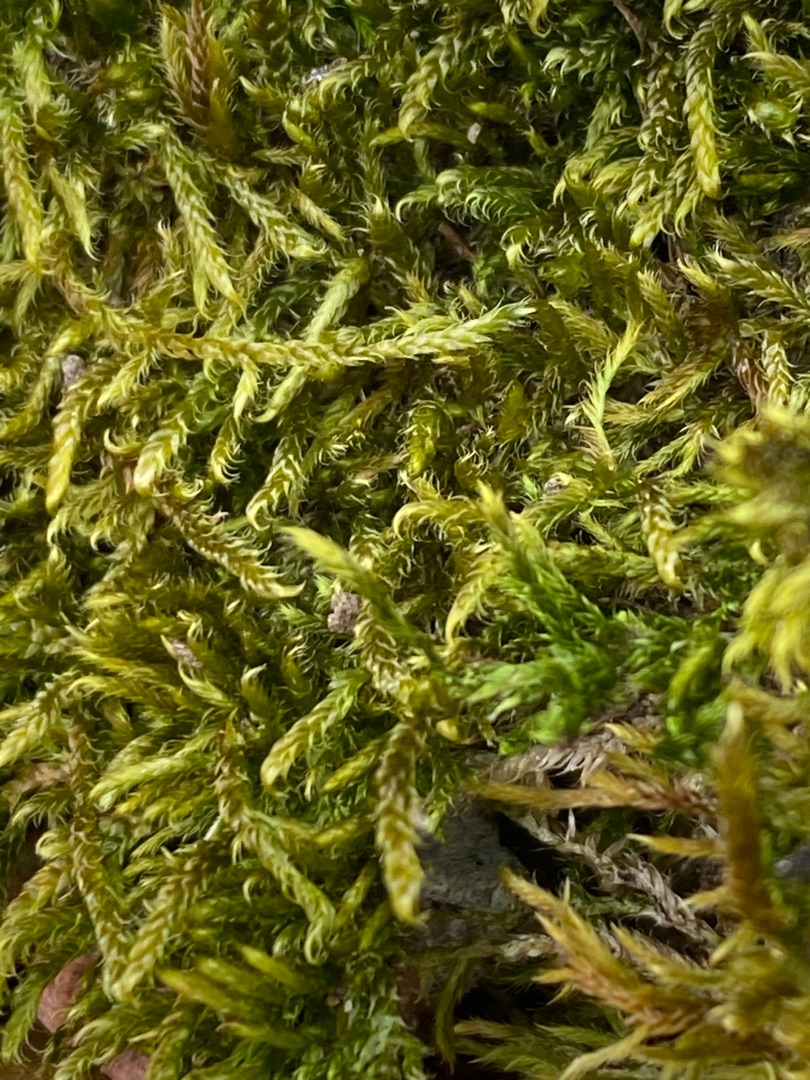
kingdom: Plantae
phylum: Bryophyta
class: Bryopsida
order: Hypnales
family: Hypnaceae
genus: Hypnum
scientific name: Hypnum cupressiforme
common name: Almindelig cypresmos
